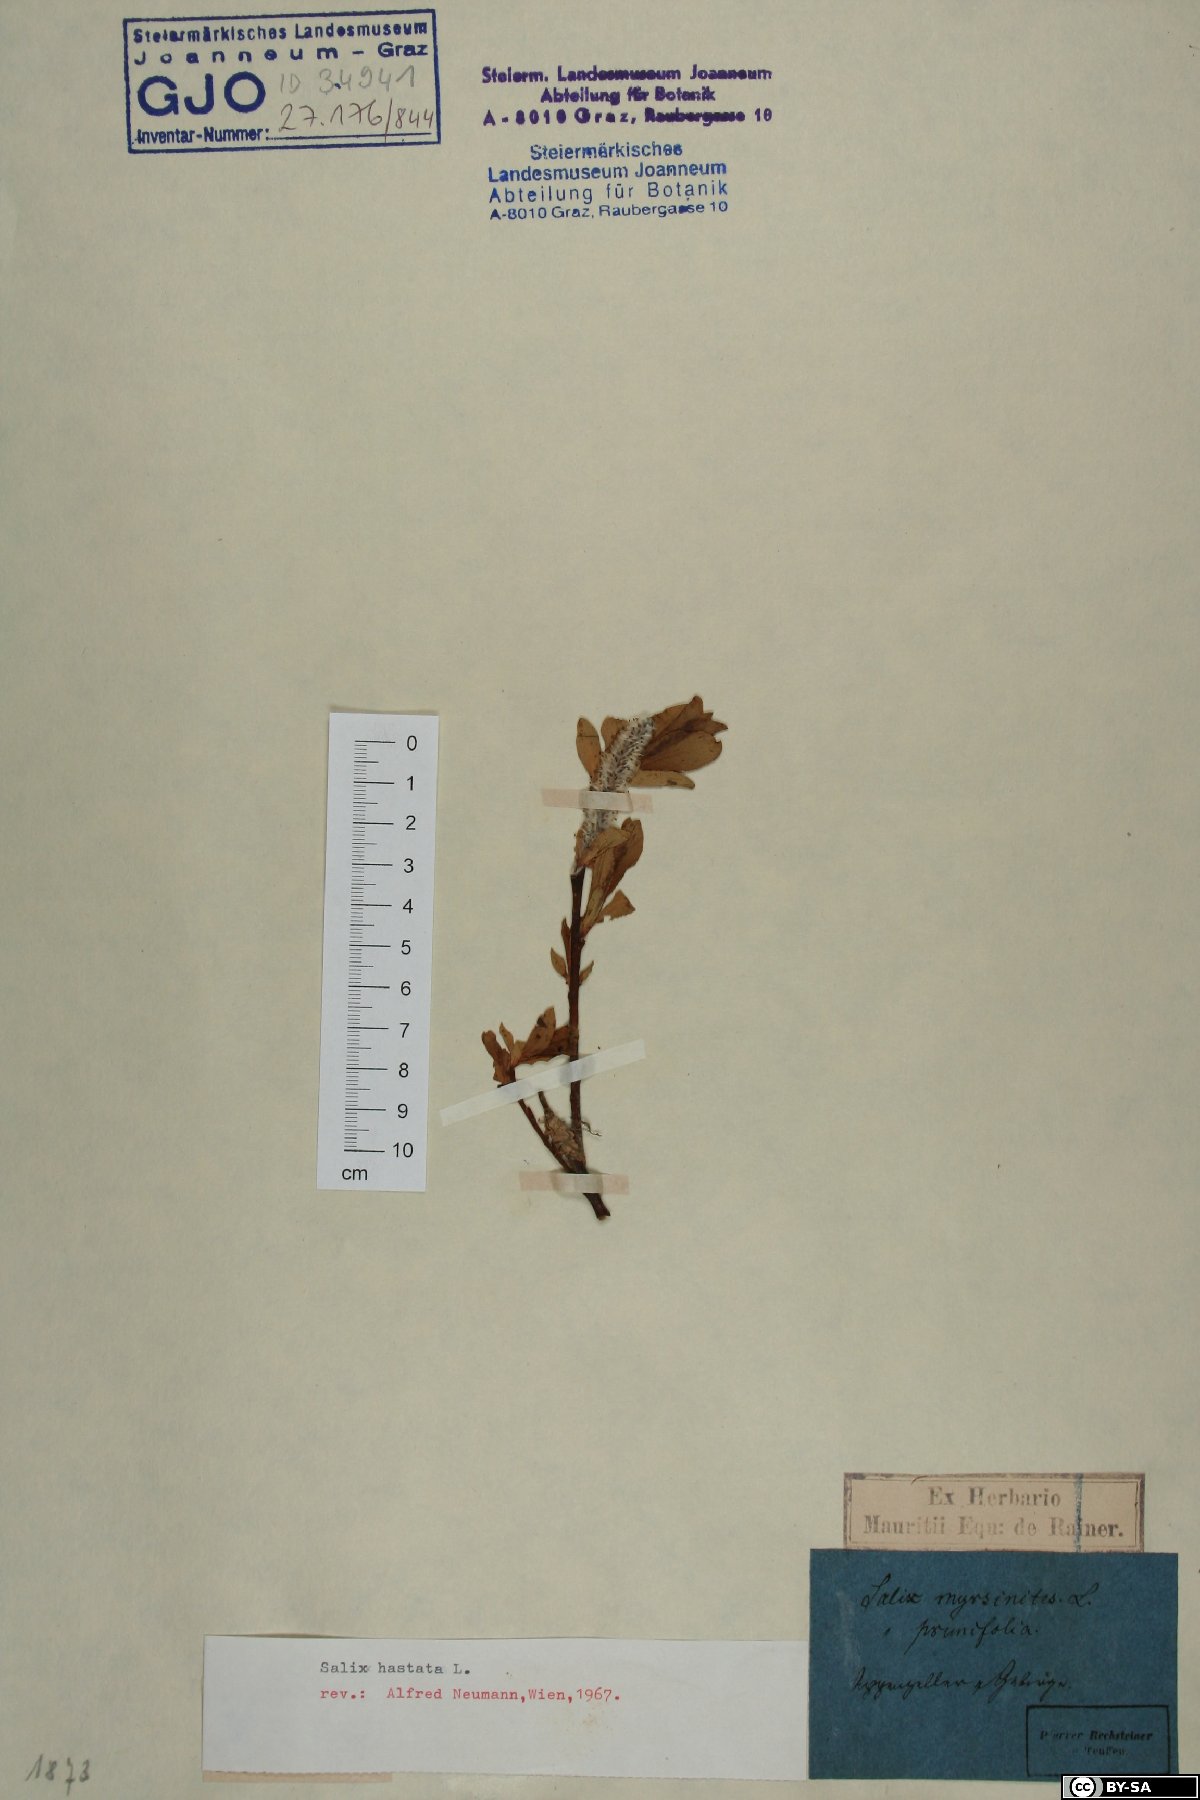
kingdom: Plantae
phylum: Tracheophyta
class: Magnoliopsida
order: Malpighiales
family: Salicaceae
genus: Salix
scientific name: Salix hastata
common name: Halberd willow
